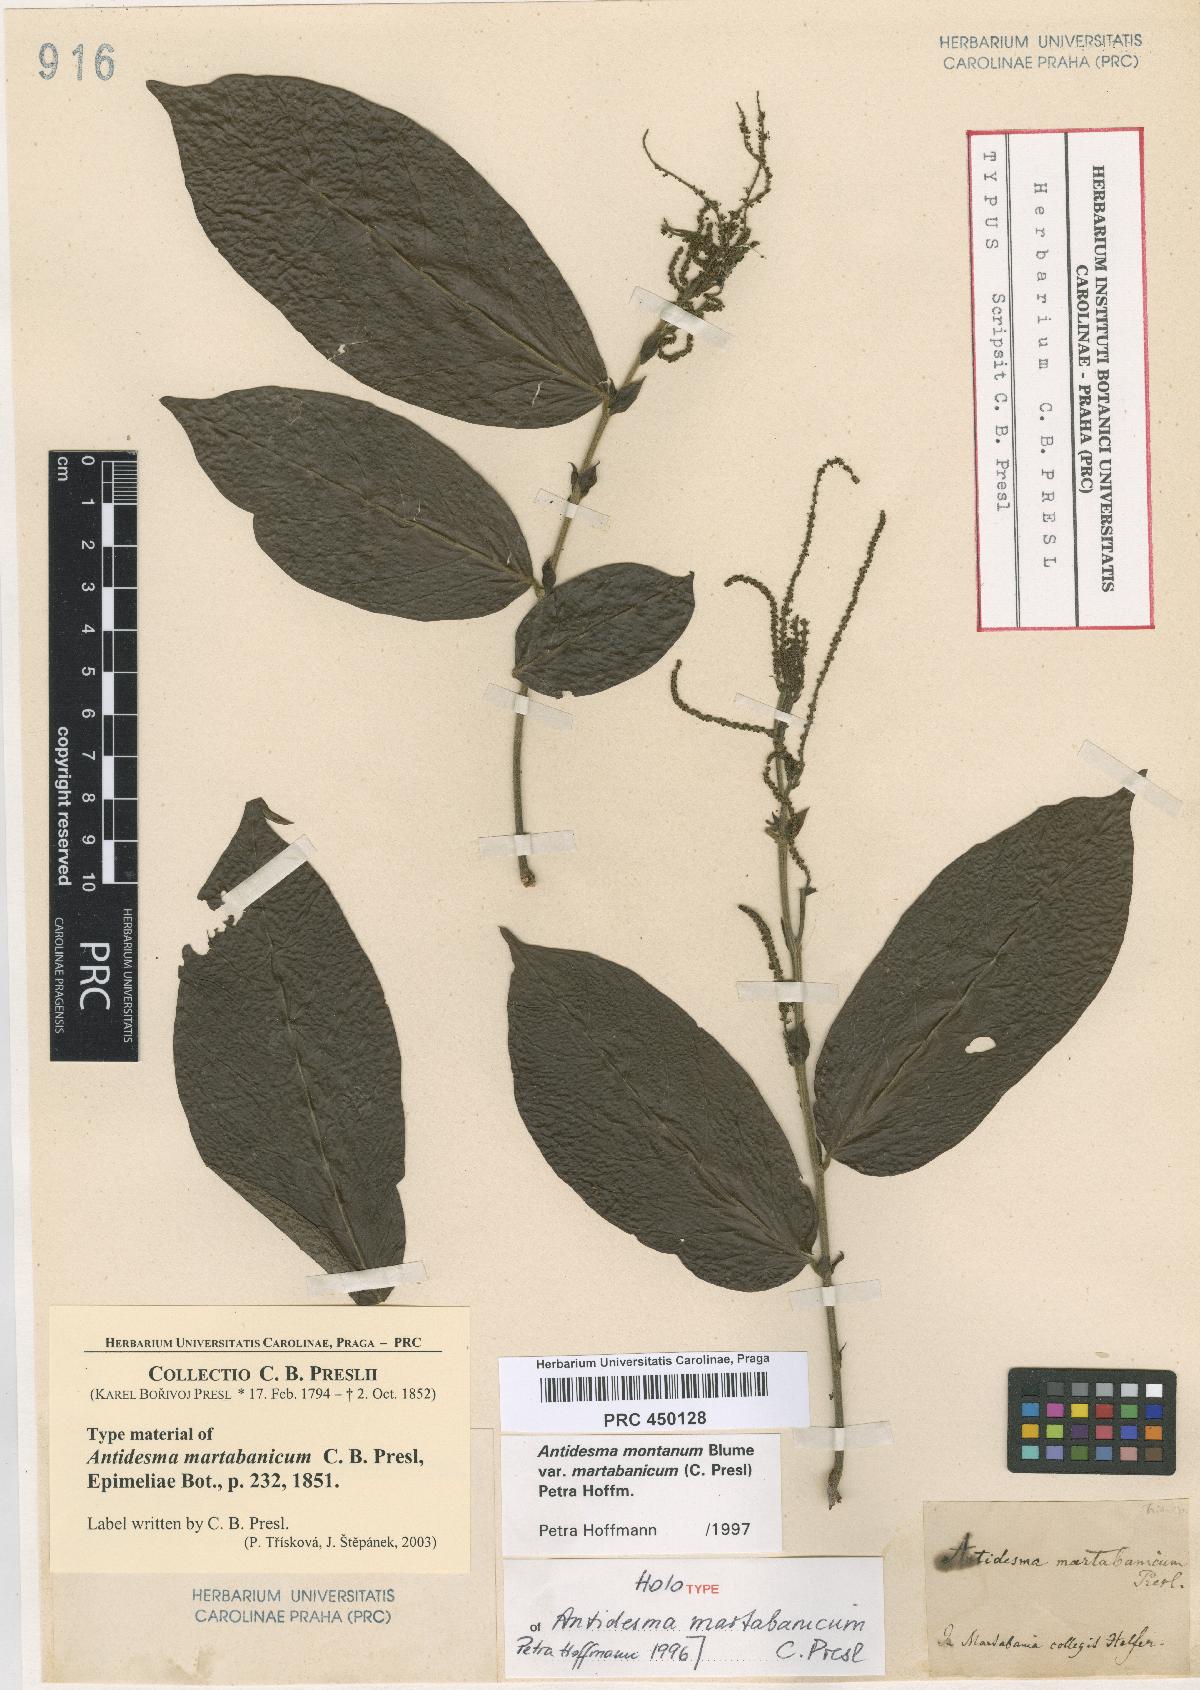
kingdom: Plantae
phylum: Tracheophyta
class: Magnoliopsida
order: Malpighiales
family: Phyllanthaceae
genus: Antidesma
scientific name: Antidesma montanum
